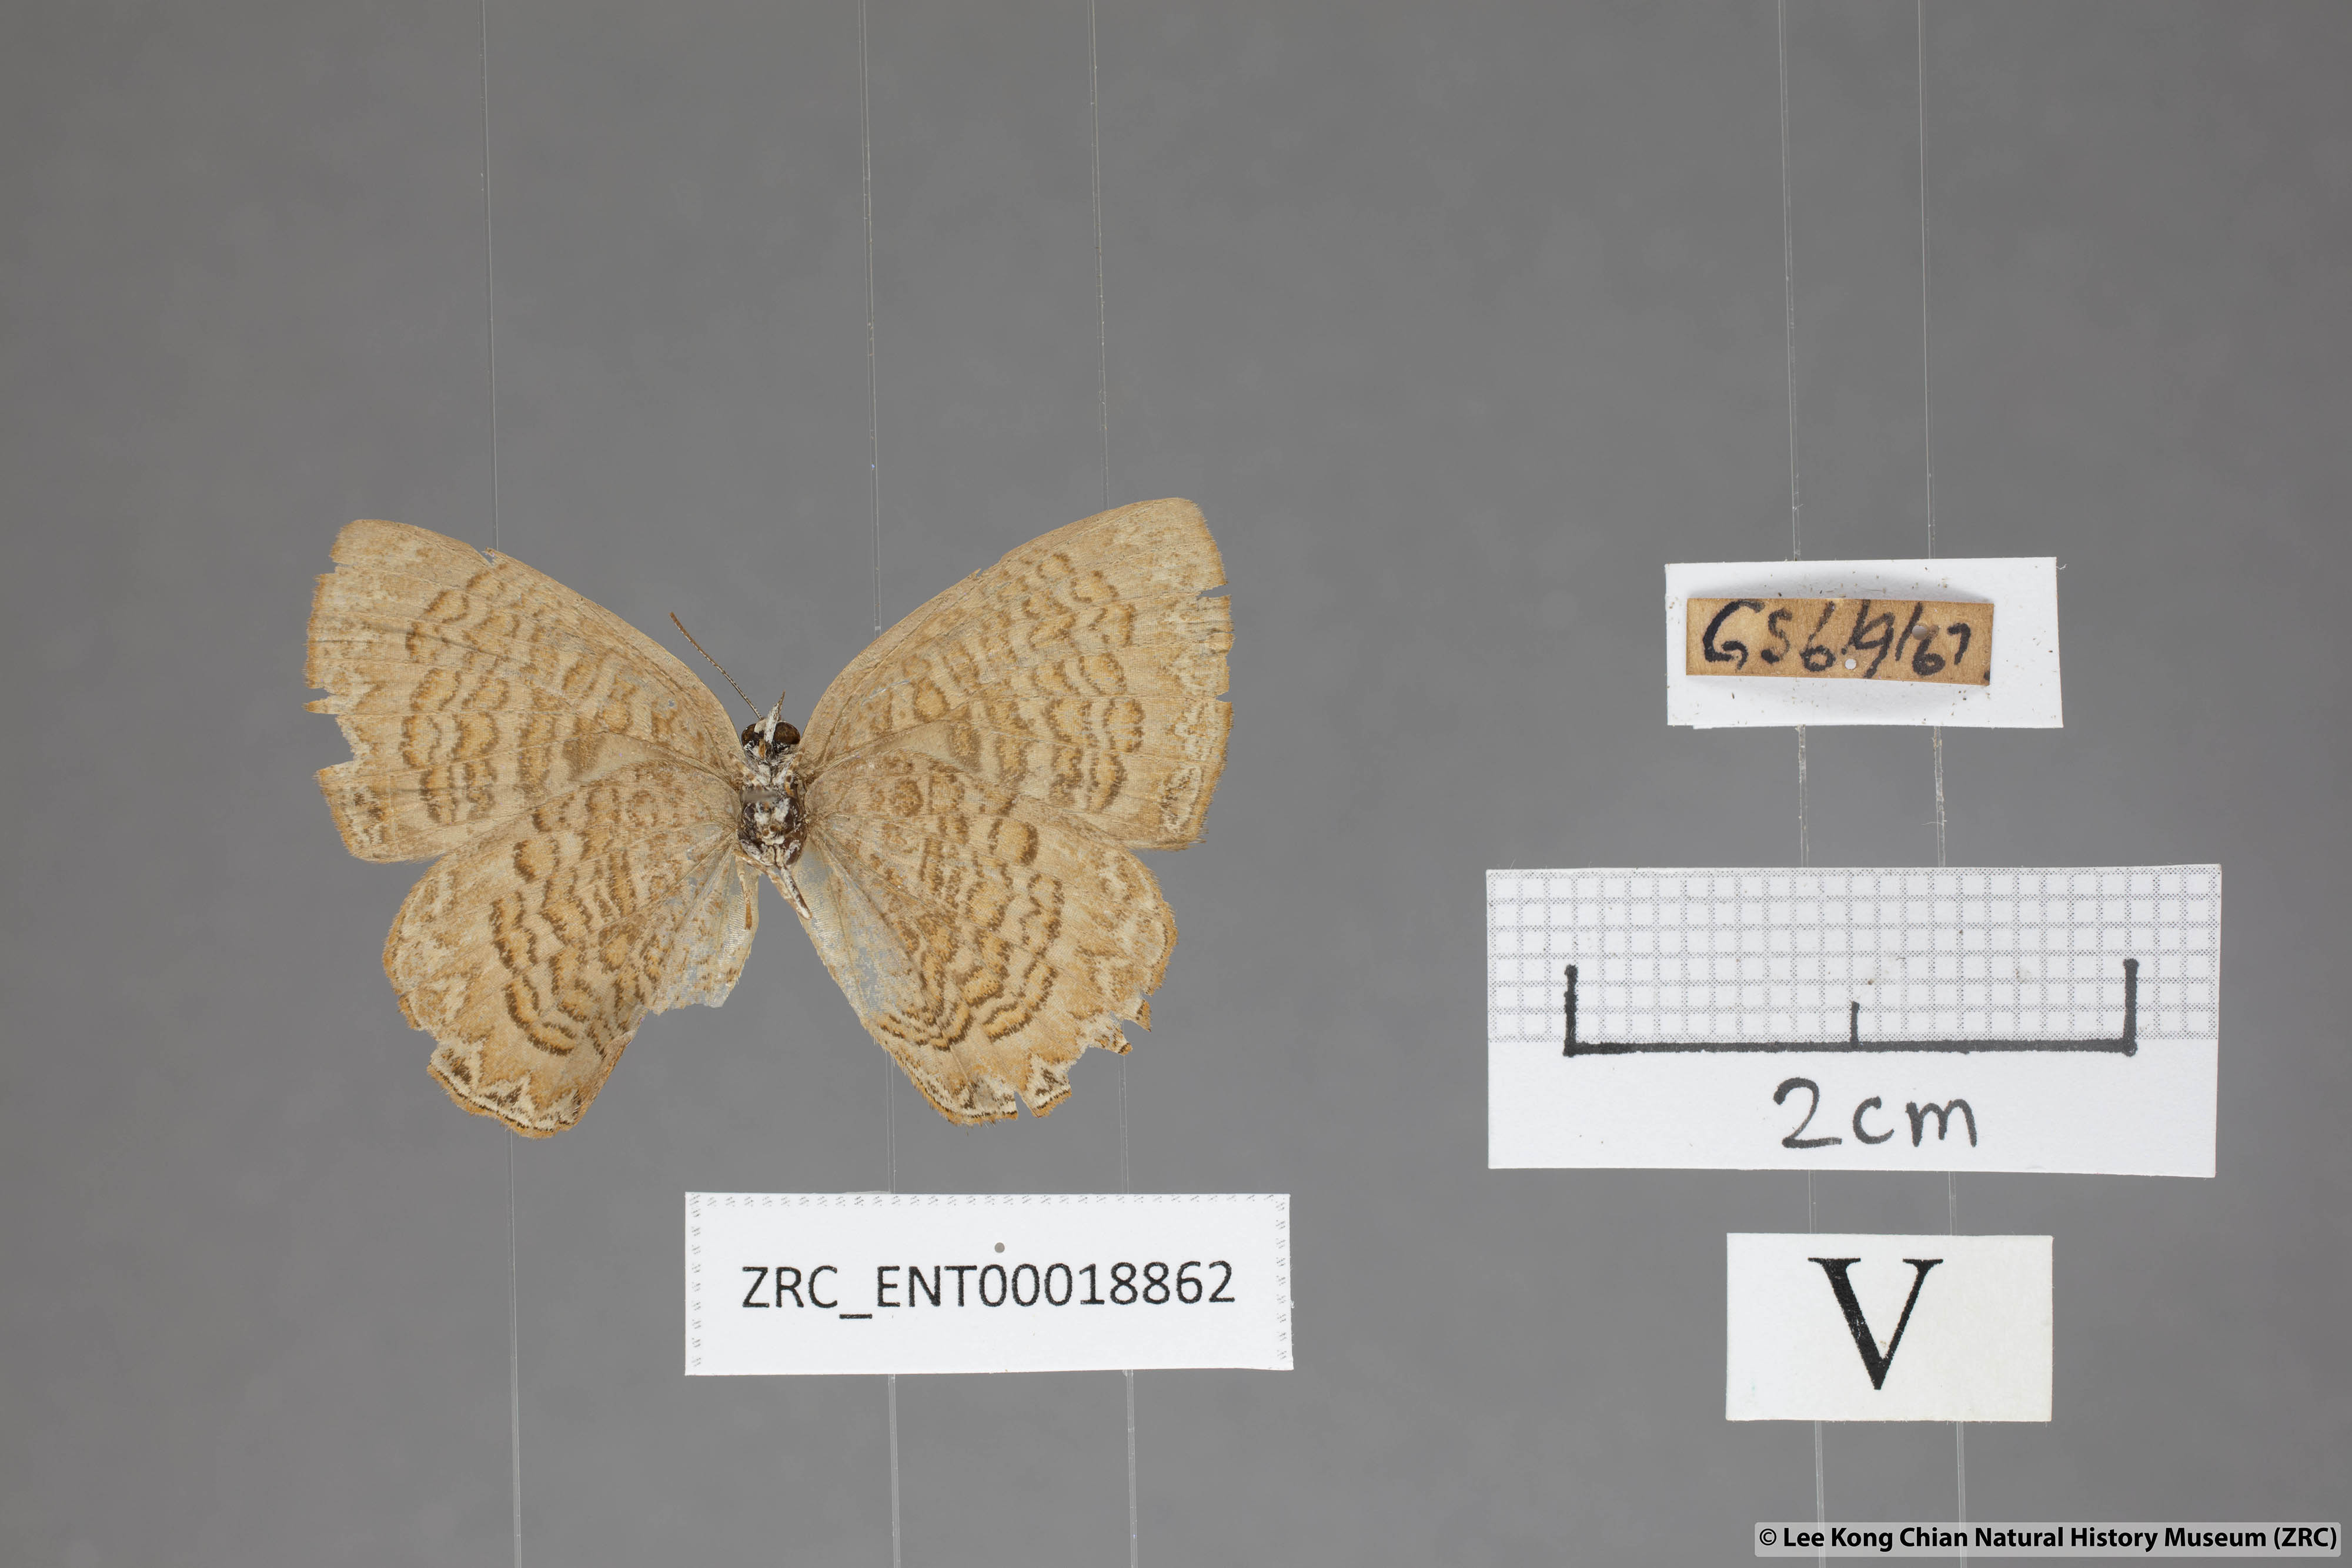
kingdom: Animalia
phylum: Arthropoda
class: Insecta
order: Lepidoptera
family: Lycaenidae
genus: Poritia
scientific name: Poritia sumatrae
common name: Sumatran gem
